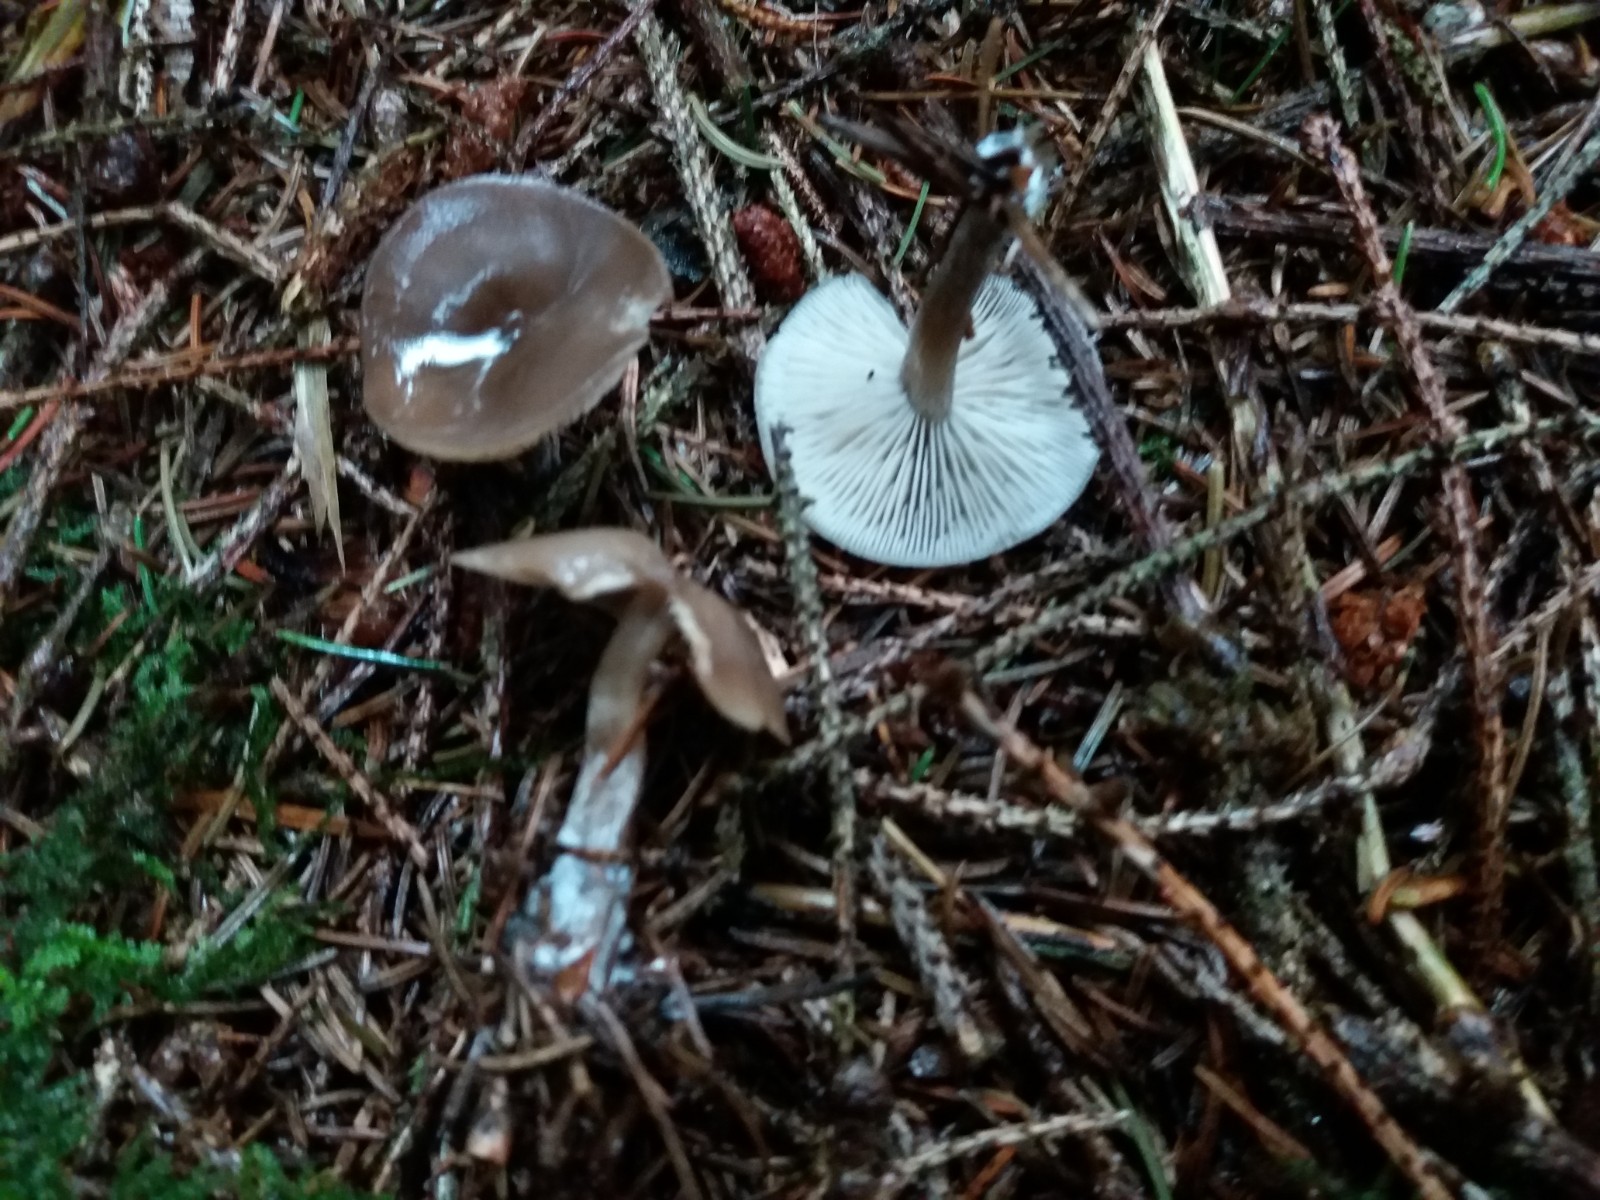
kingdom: Fungi
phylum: Basidiomycota
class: Agaricomycetes
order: Agaricales
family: Lyophyllaceae
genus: Tephrocybe
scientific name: Tephrocybe confusa
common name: trist gråblad
